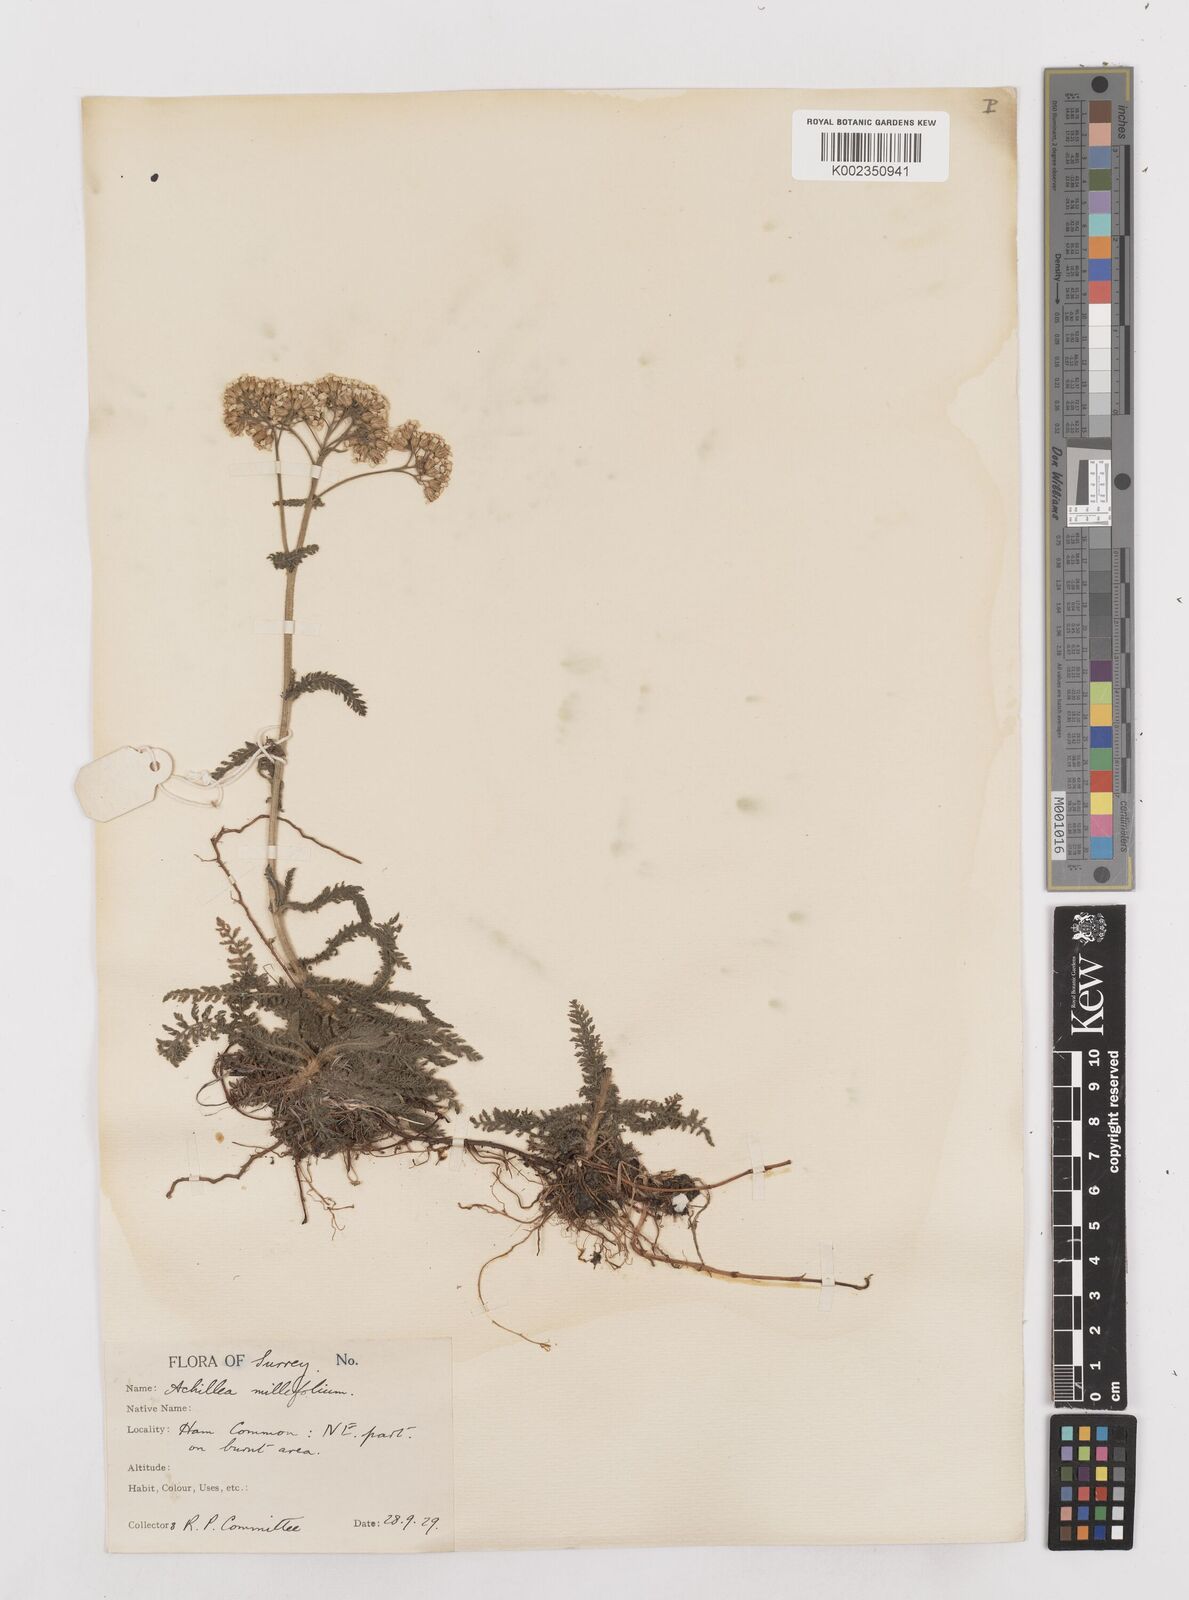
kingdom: Plantae
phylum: Tracheophyta
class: Magnoliopsida
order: Asterales
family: Asteraceae
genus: Achillea
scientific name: Achillea millefolium
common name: Yarrow
